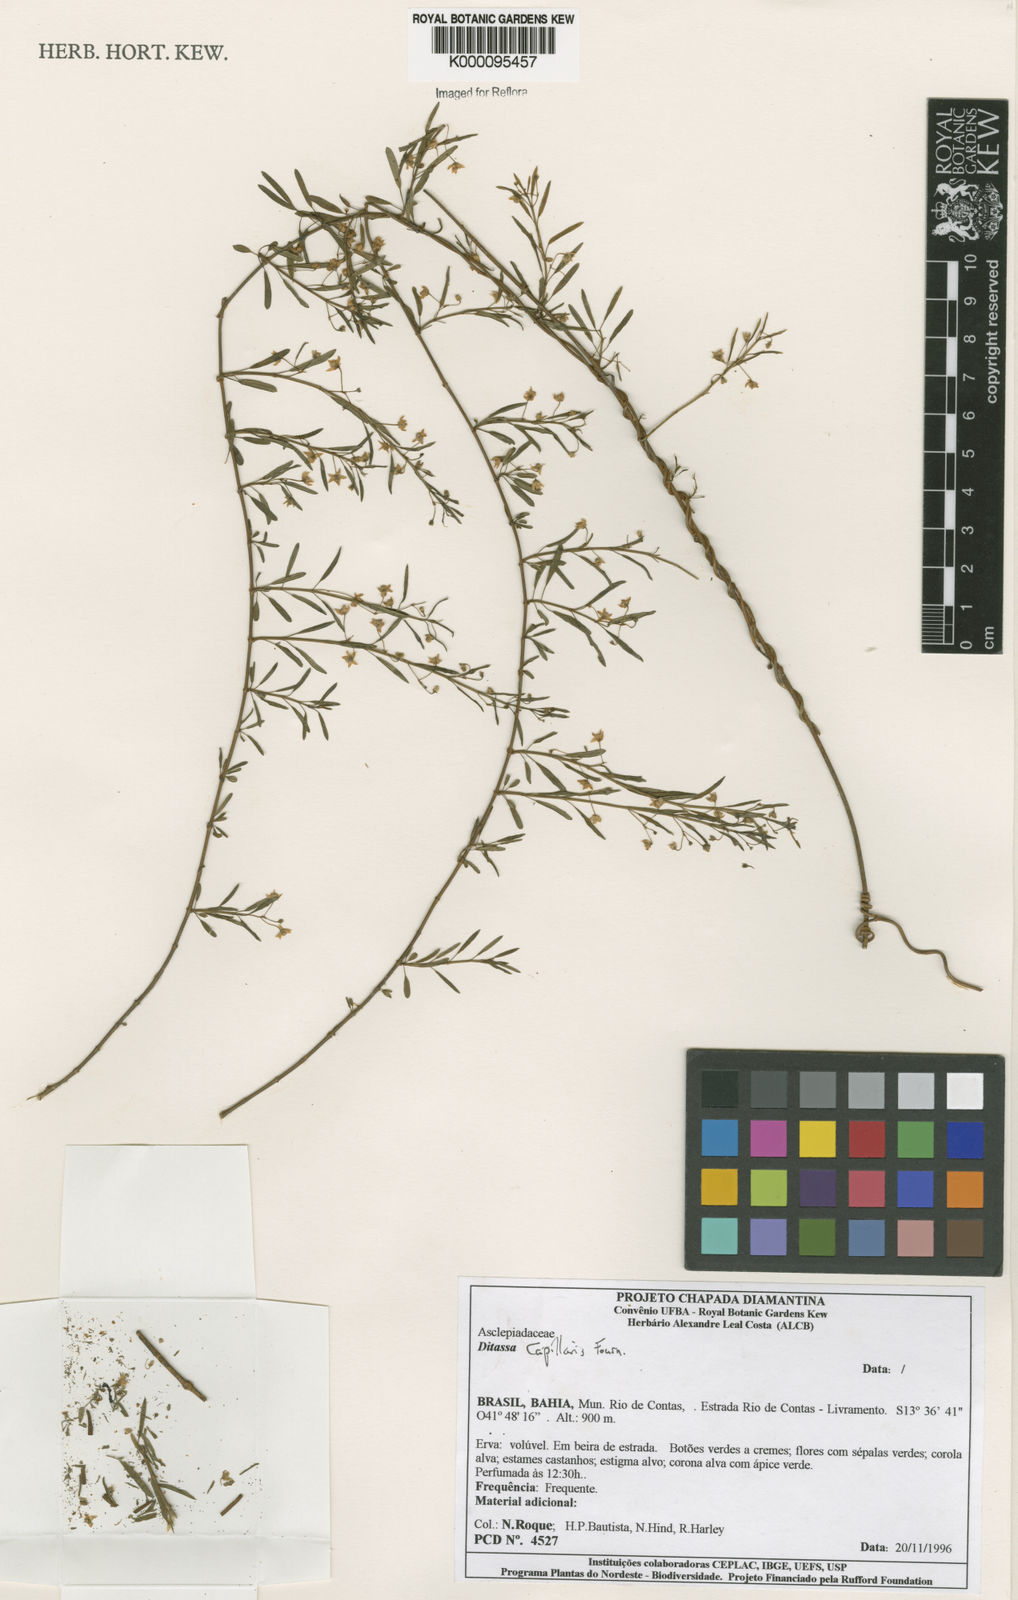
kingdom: Plantae
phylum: Tracheophyta
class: Magnoliopsida
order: Gentianales
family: Apocynaceae
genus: Ditassa
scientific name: Ditassa capillaris
